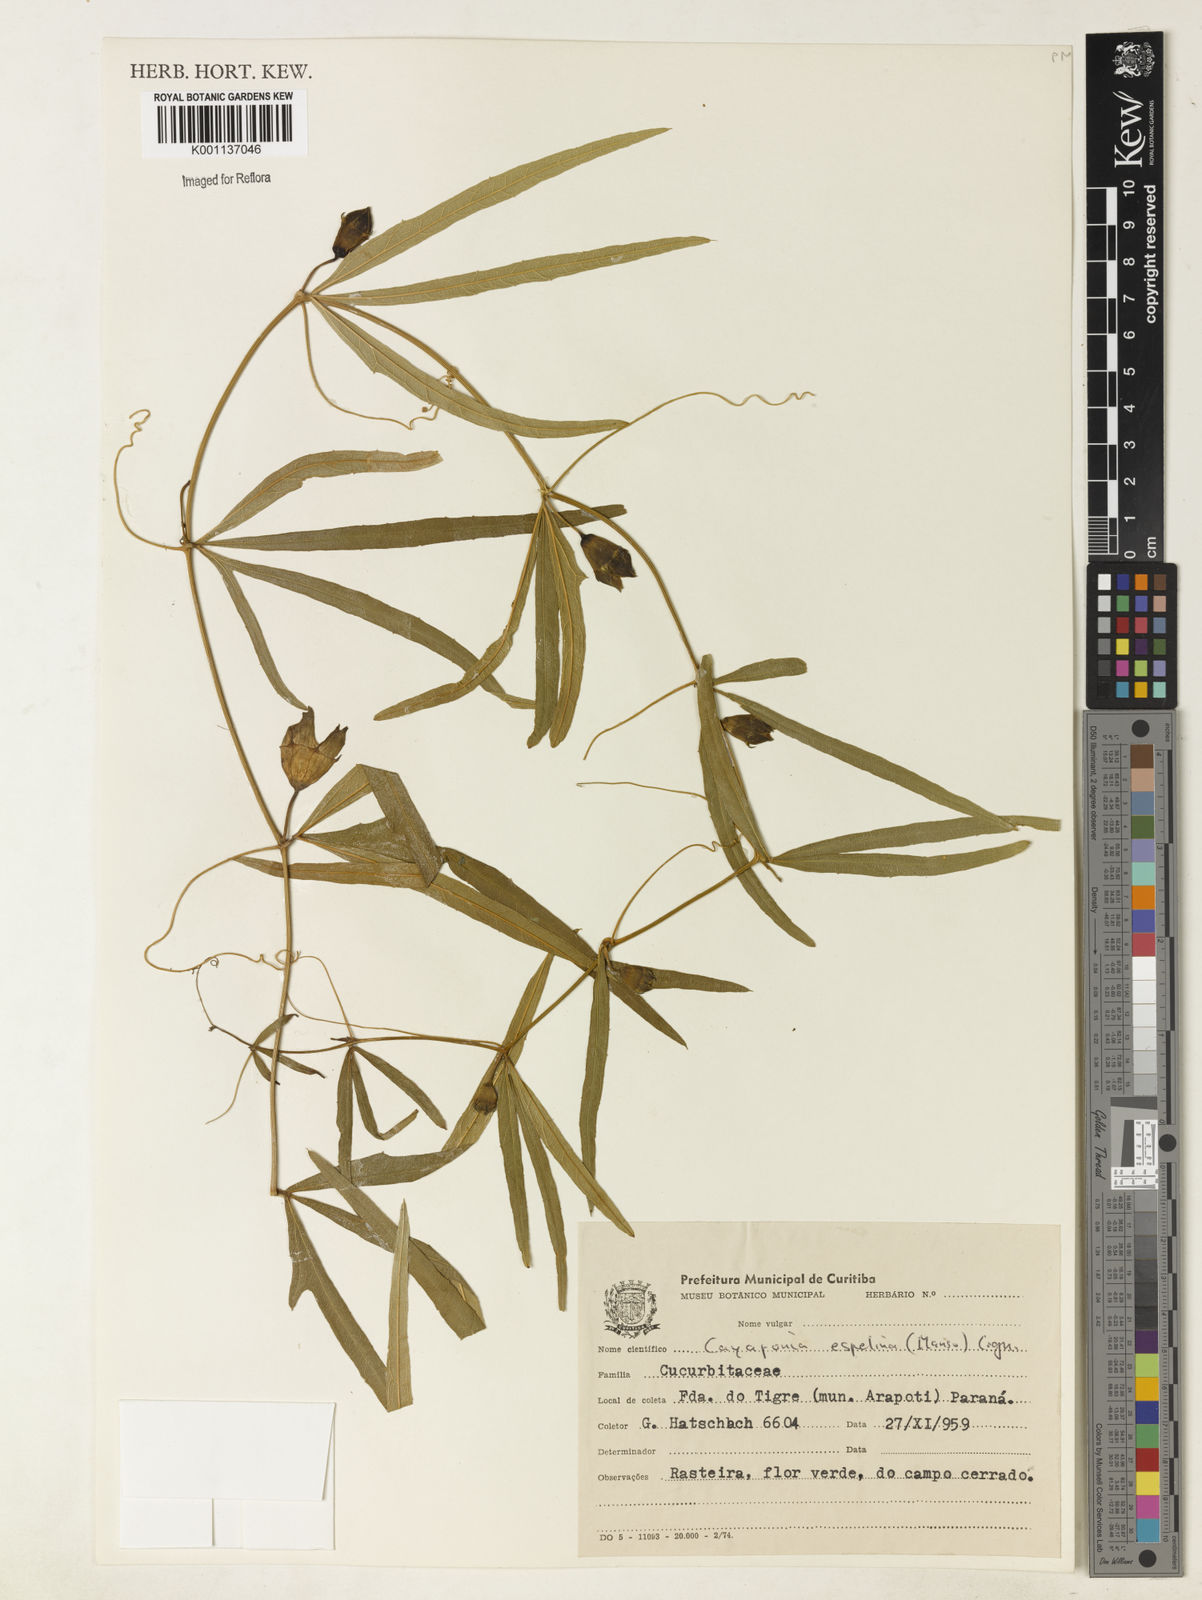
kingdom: Plantae
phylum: Tracheophyta
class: Magnoliopsida
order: Cucurbitales
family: Cucurbitaceae
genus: Cayaponia
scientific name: Cayaponia espelina
